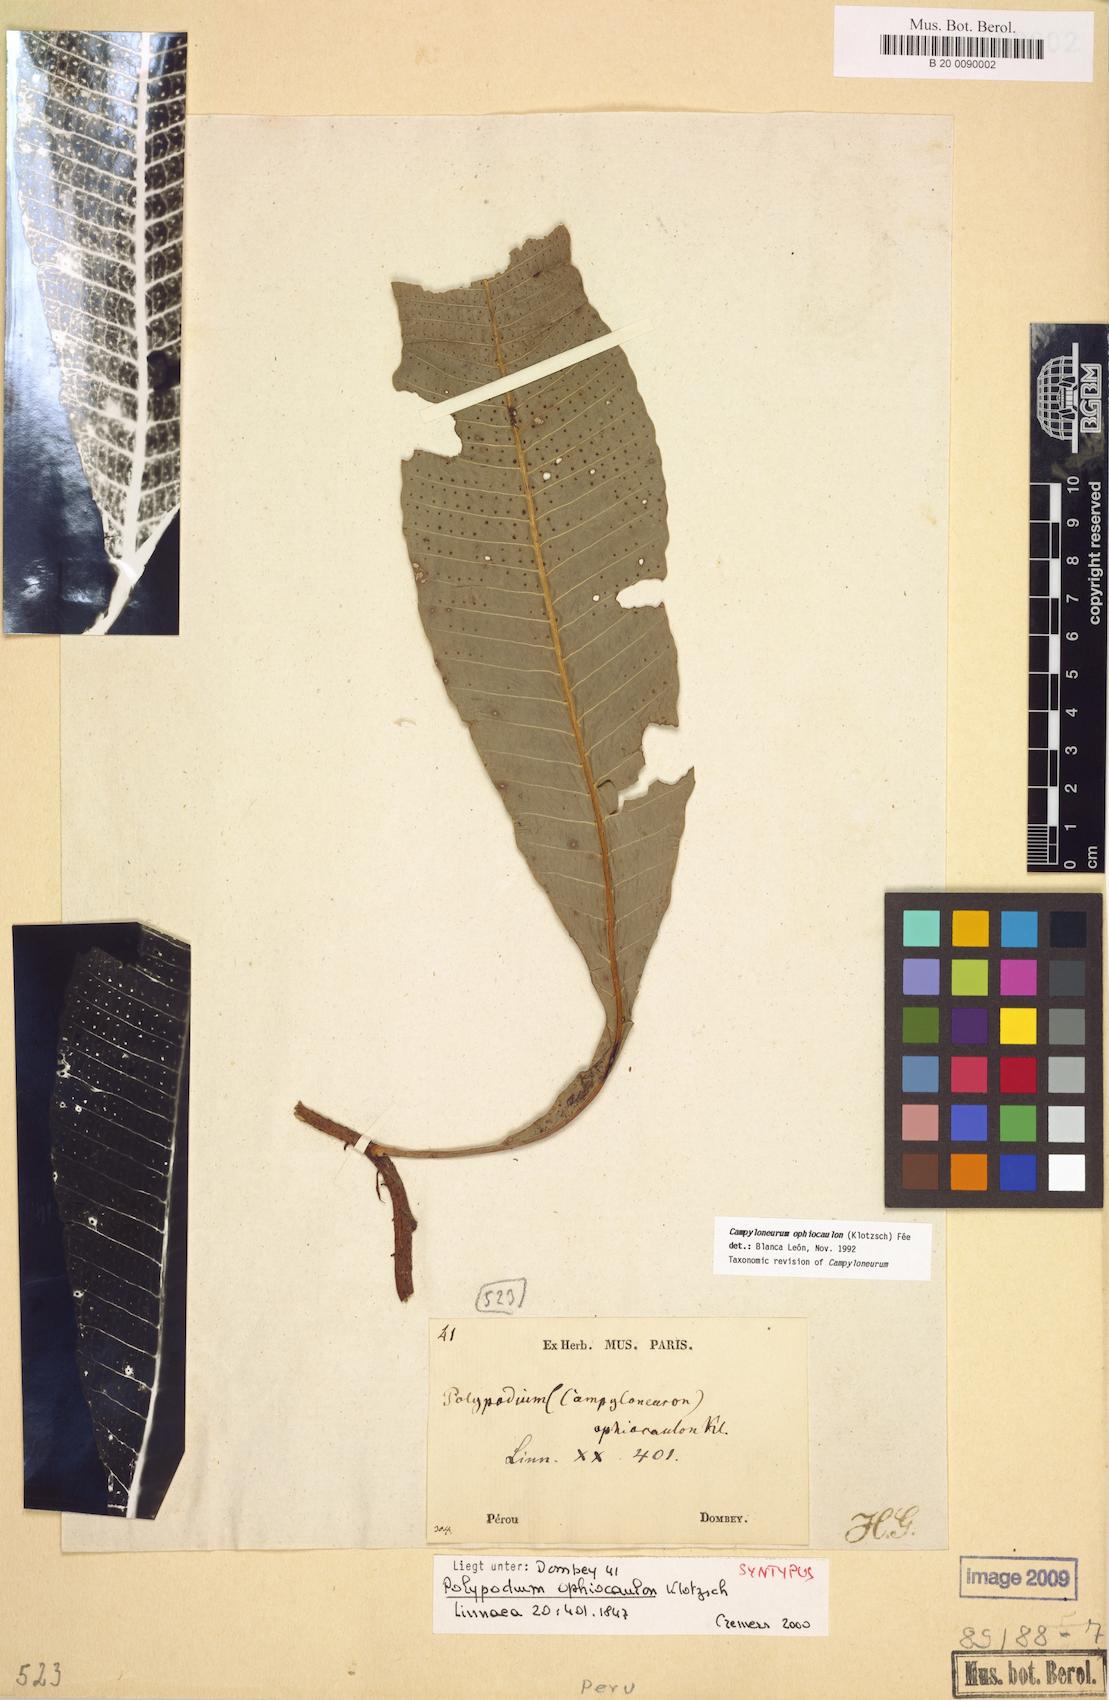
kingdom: Plantae
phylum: Tracheophyta
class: Polypodiopsida
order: Polypodiales
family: Polypodiaceae
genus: Campyloneurum
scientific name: Campyloneurum ophiocaulon
